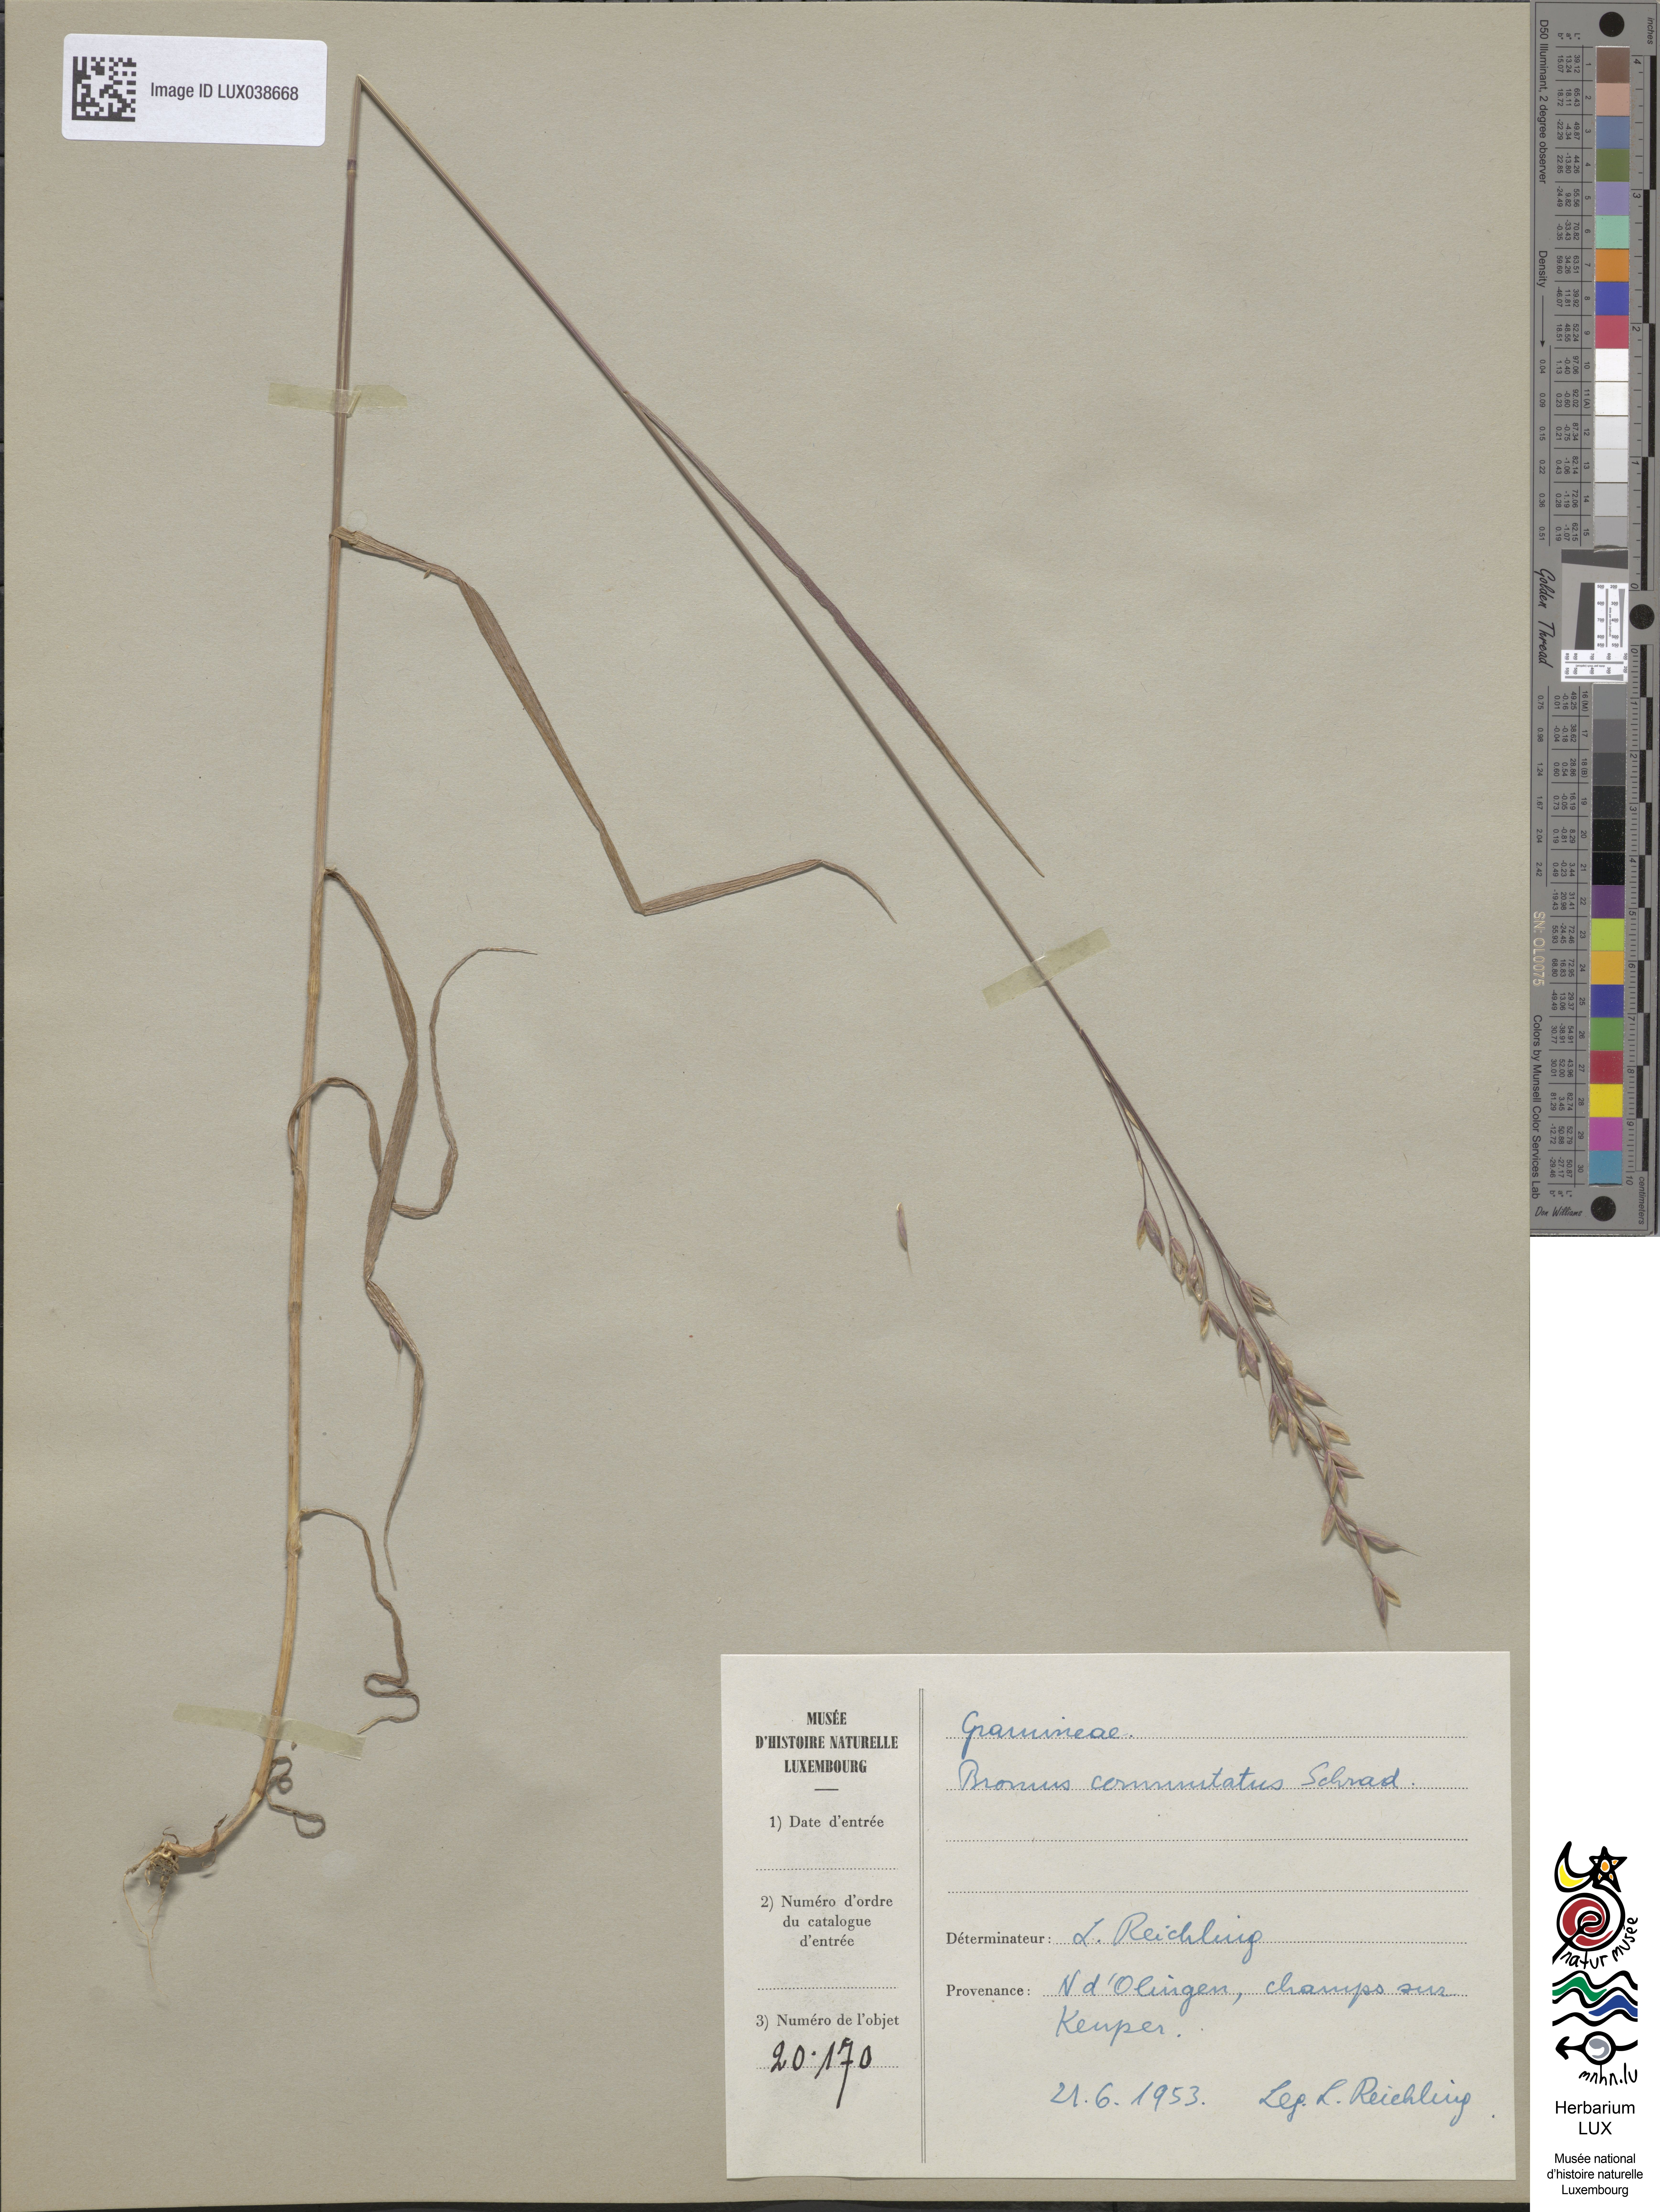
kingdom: Plantae
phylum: Tracheophyta
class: Liliopsida
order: Poales
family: Poaceae
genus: Bromus
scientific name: Bromus commutatus
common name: Meadow brome
